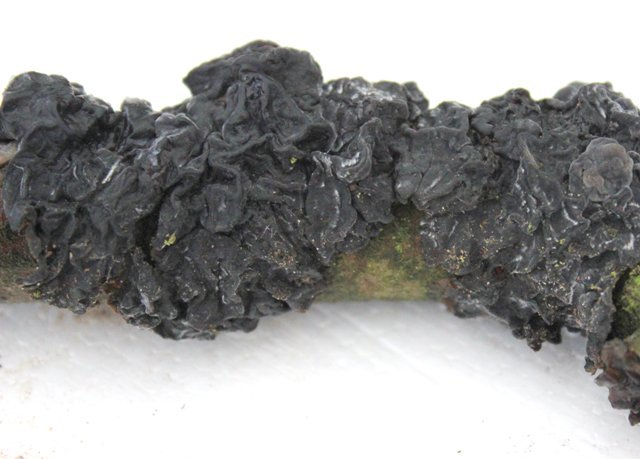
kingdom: Fungi
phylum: Basidiomycota
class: Agaricomycetes
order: Auriculariales
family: Auriculariaceae
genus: Exidia
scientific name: Exidia glandulosa
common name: ege-bævretop
